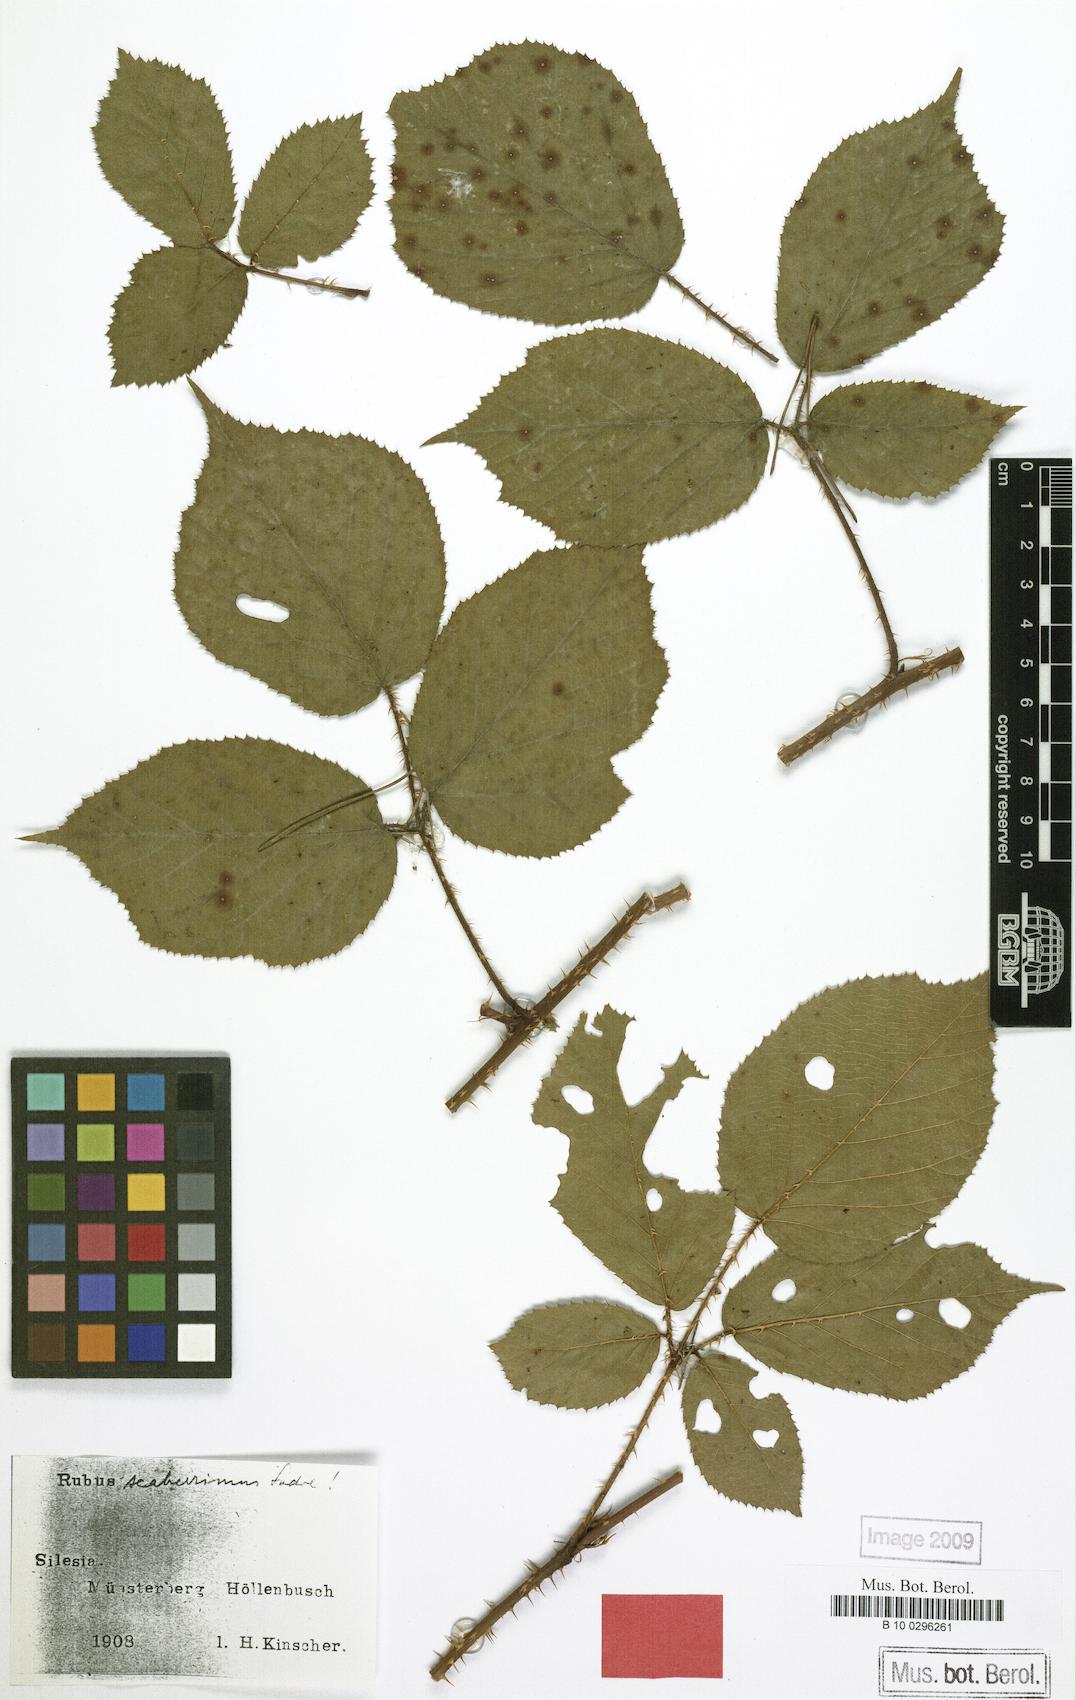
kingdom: Plantae
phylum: Tracheophyta
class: Magnoliopsida
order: Rosales
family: Rosaceae
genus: Rubus
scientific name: Rubus sentellus
